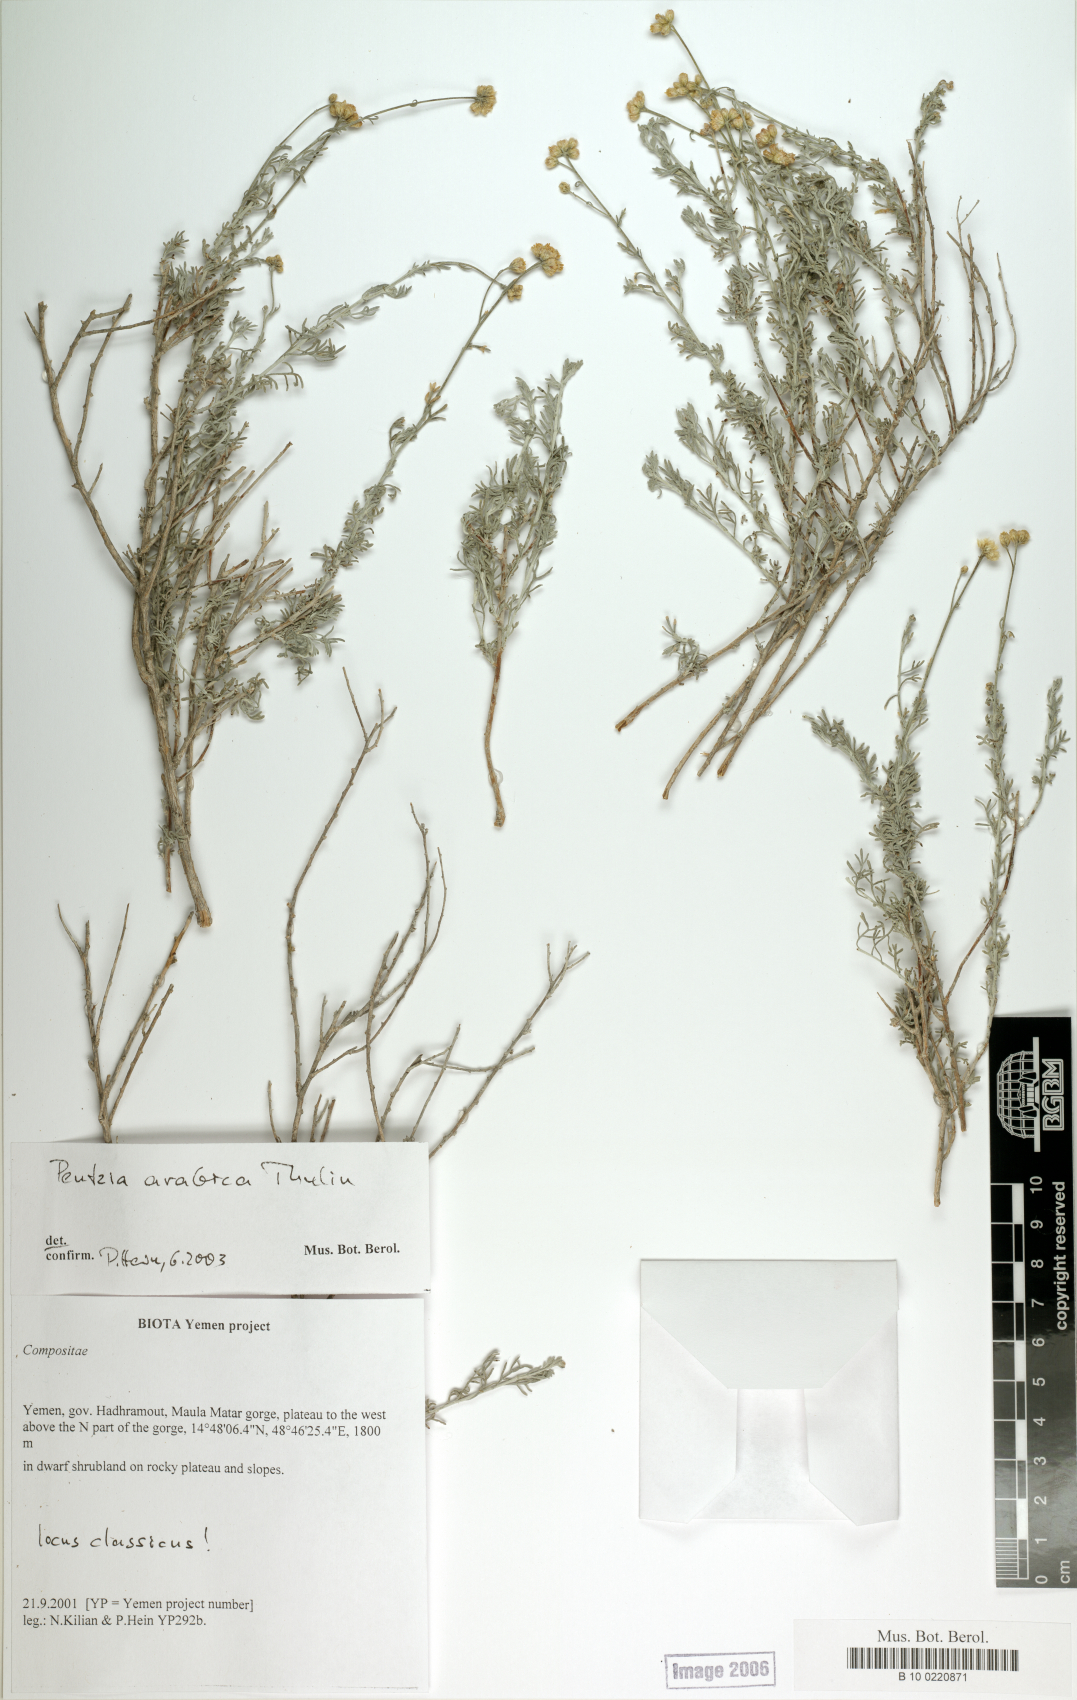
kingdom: Plantae
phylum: Tracheophyta
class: Magnoliopsida
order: Asterales
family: Asteraceae
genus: Pentzia
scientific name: Pentzia arabica
